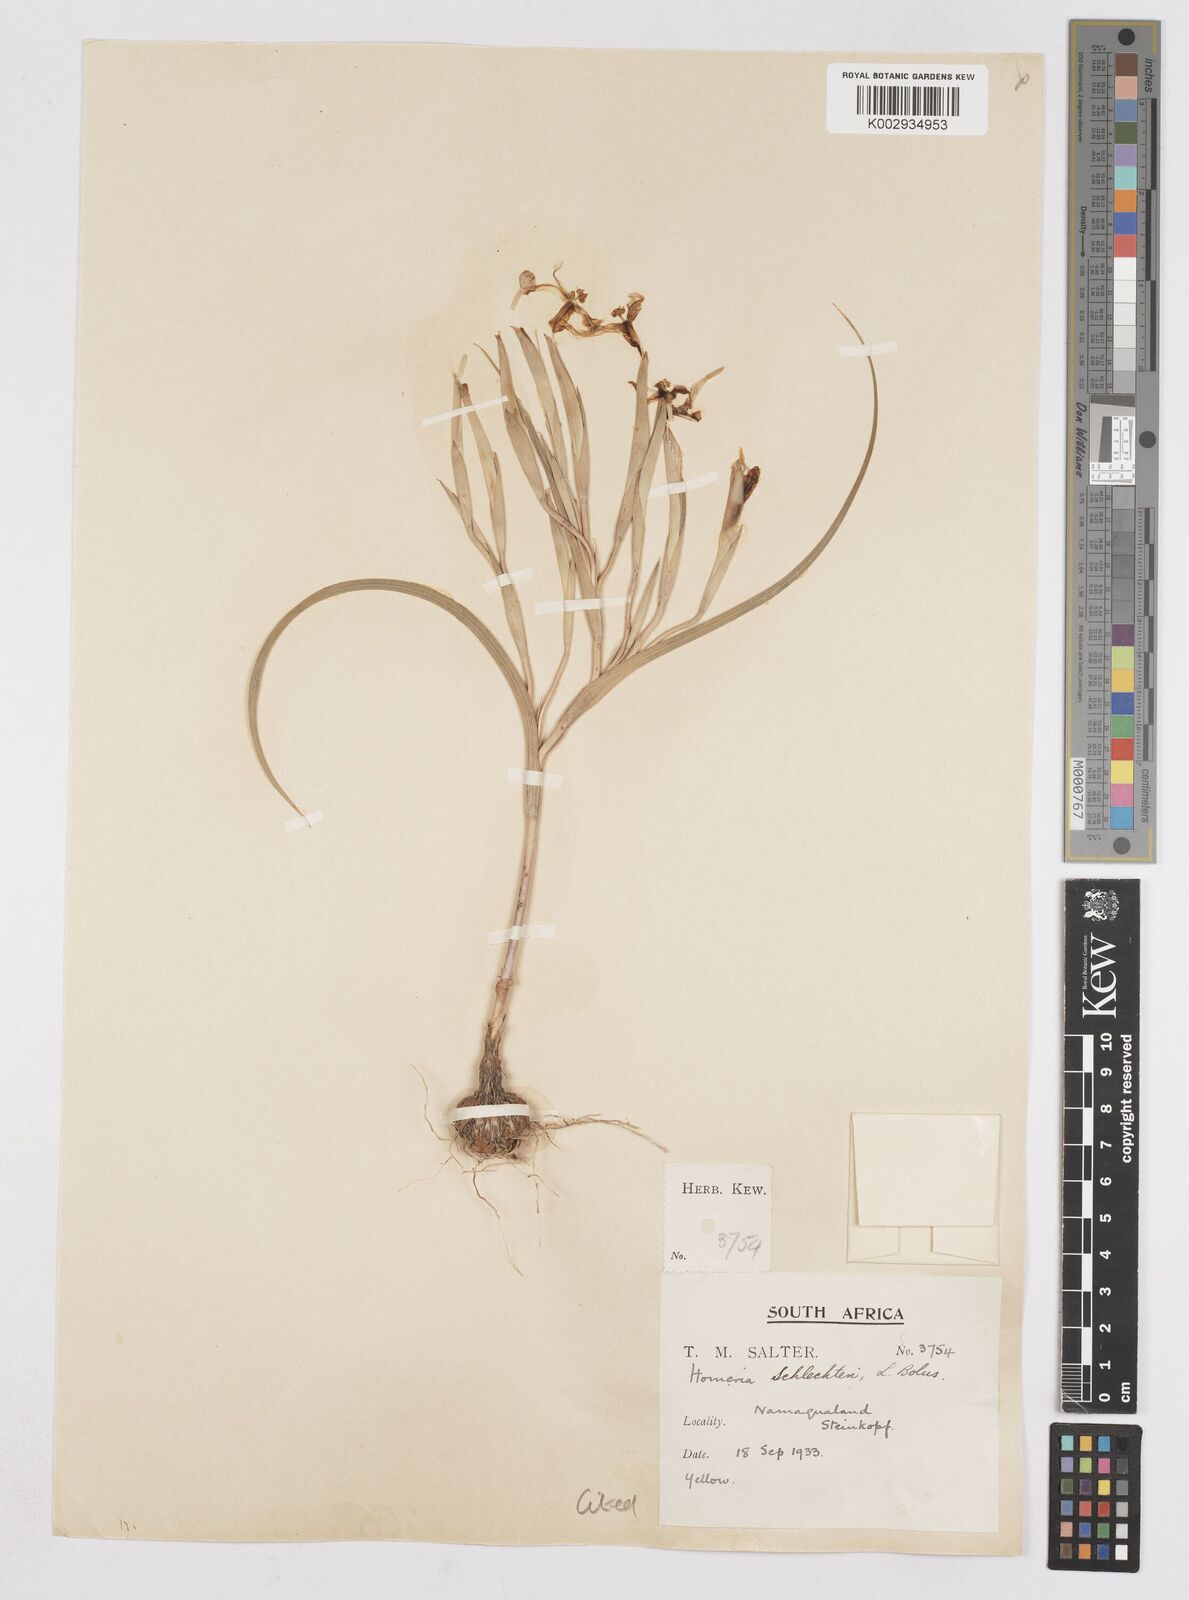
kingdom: Plantae
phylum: Tracheophyta
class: Liliopsida
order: Asparagales
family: Iridaceae
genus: Moraea
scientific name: Moraea schlechteri
